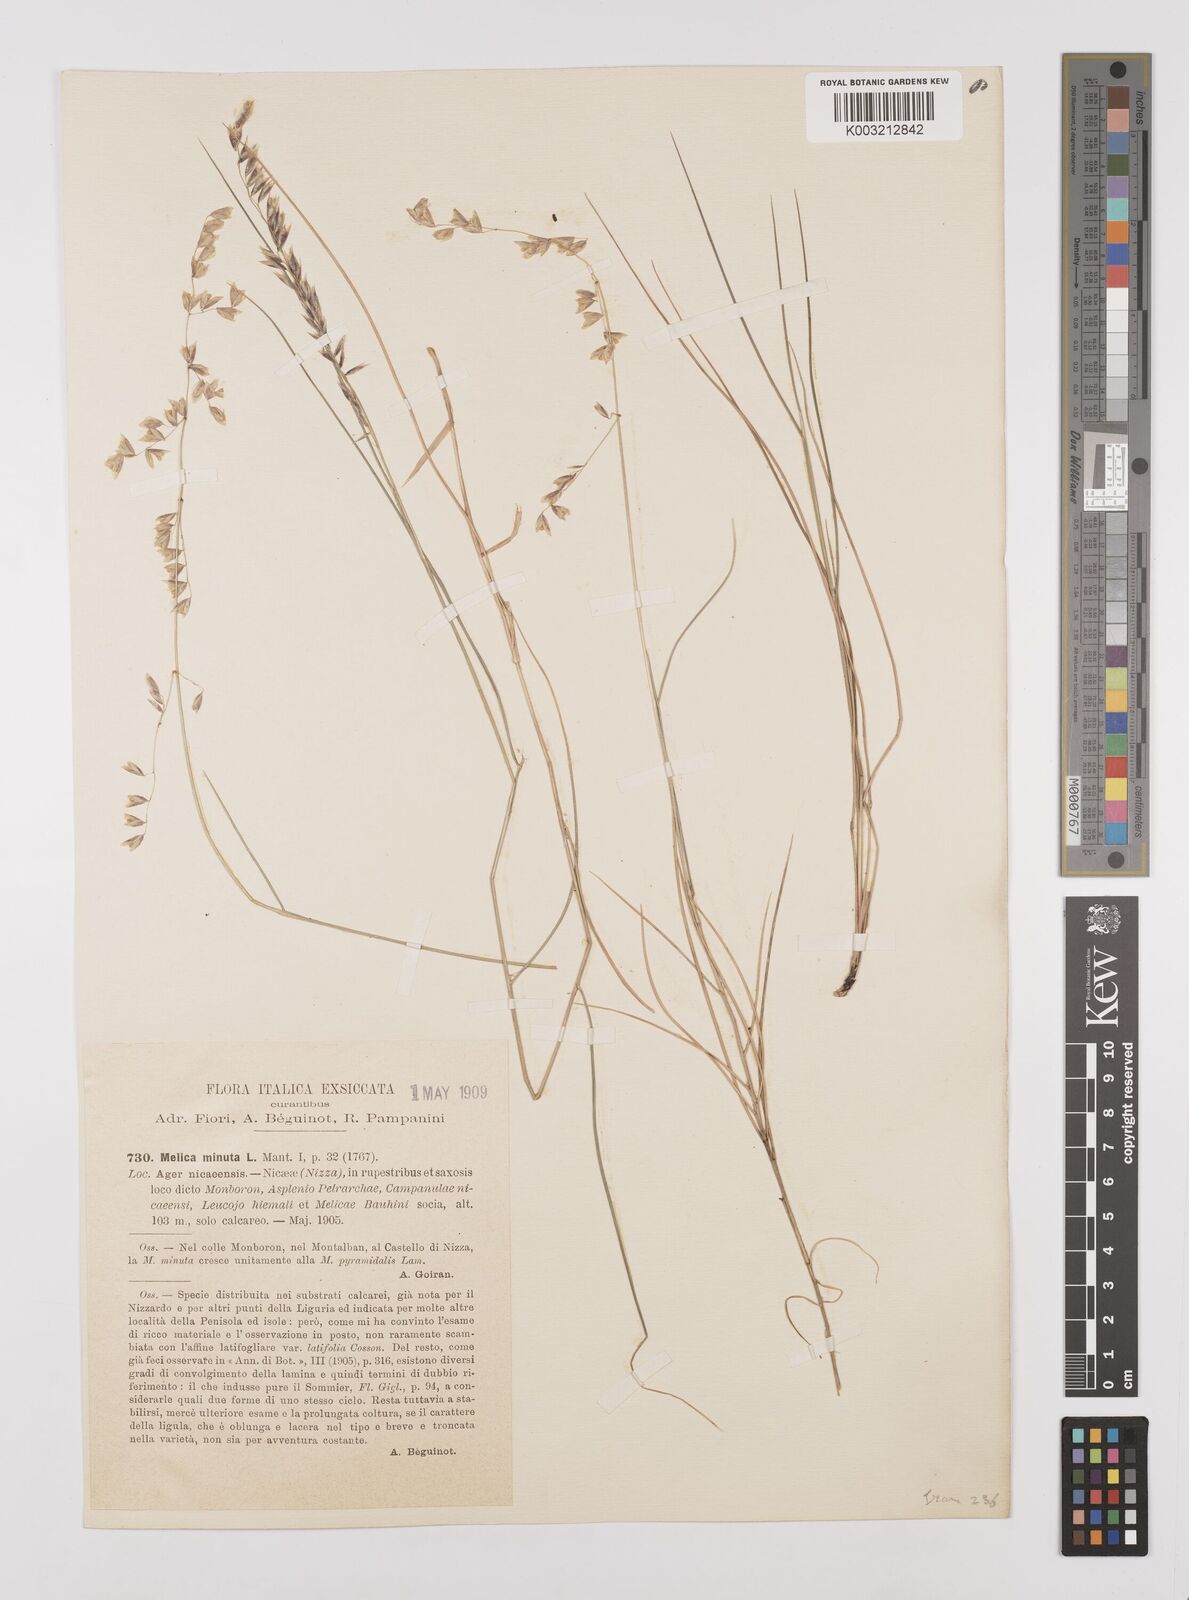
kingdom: Plantae
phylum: Tracheophyta
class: Liliopsida
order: Poales
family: Poaceae
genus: Melica
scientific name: Melica minuta
